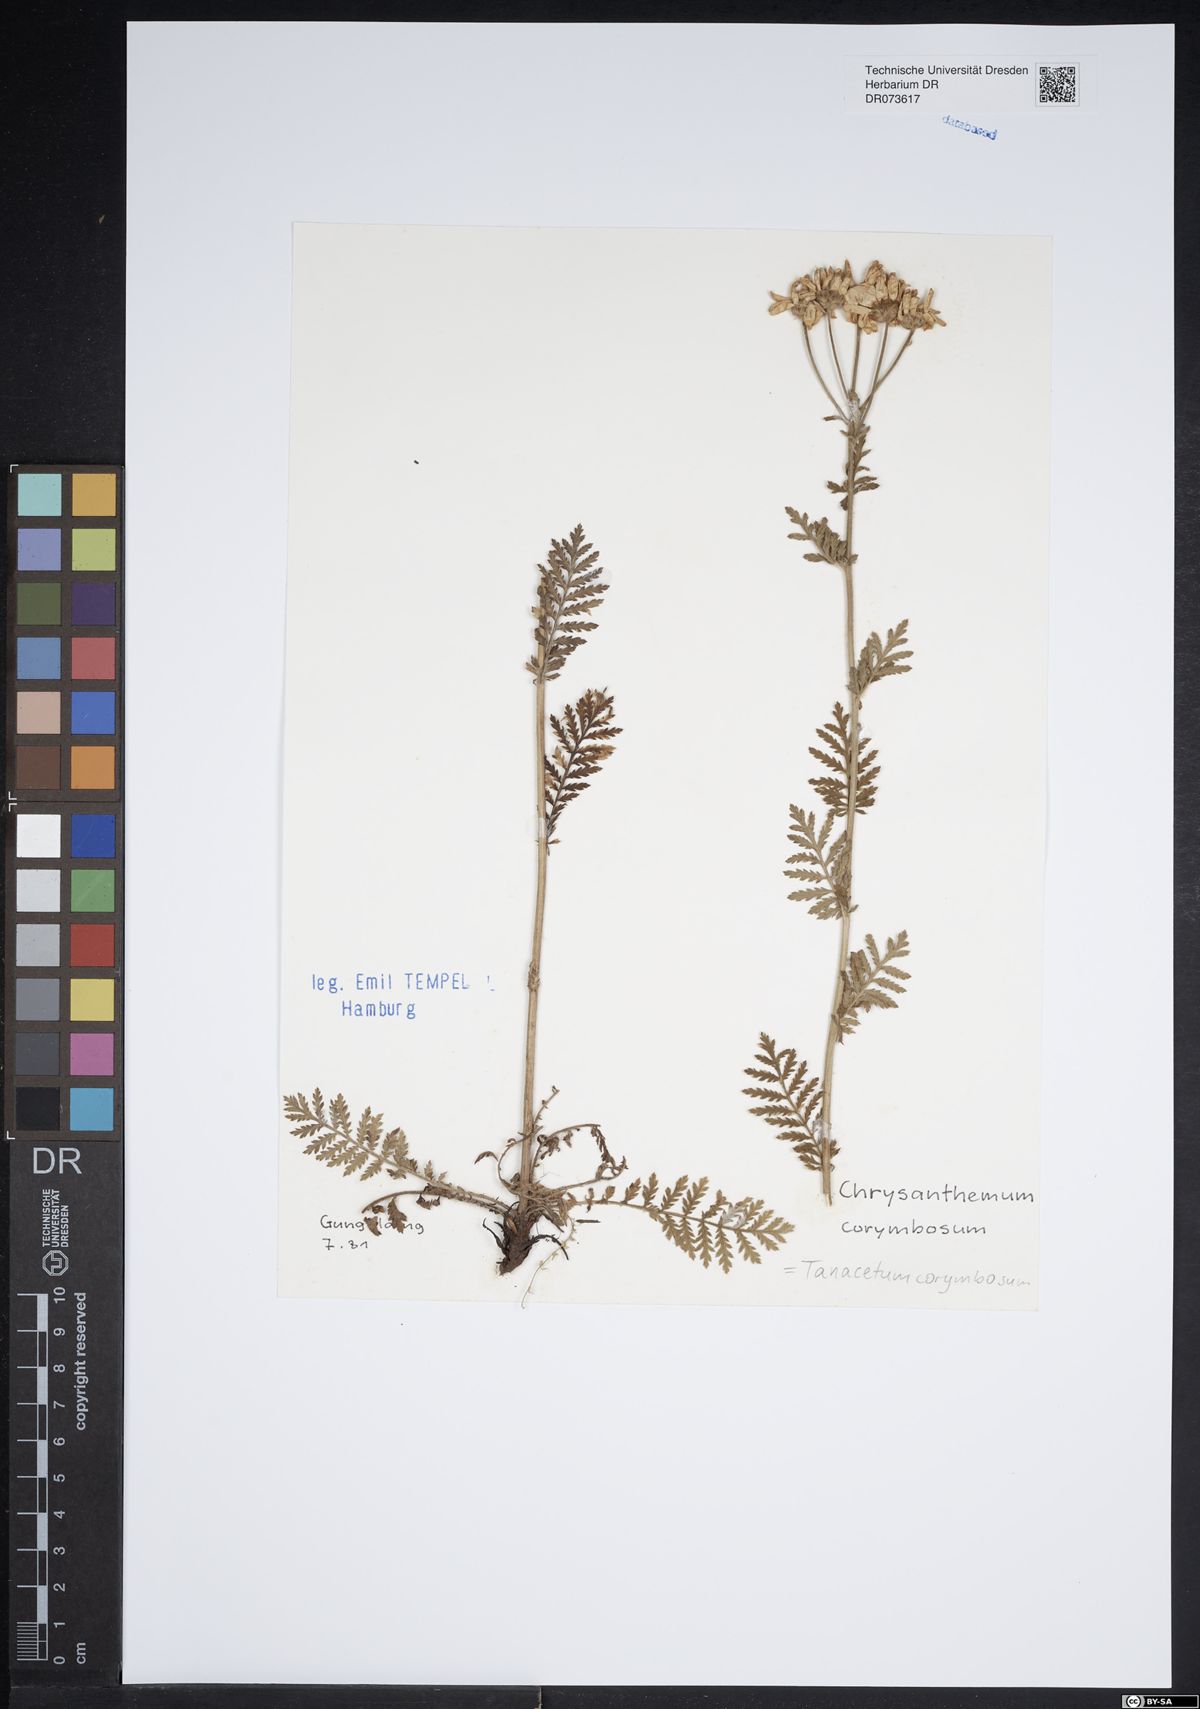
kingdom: Plantae
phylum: Tracheophyta
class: Magnoliopsida
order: Asterales
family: Asteraceae
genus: Tanacetum
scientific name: Tanacetum corymbosum
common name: Scentless feverfew
